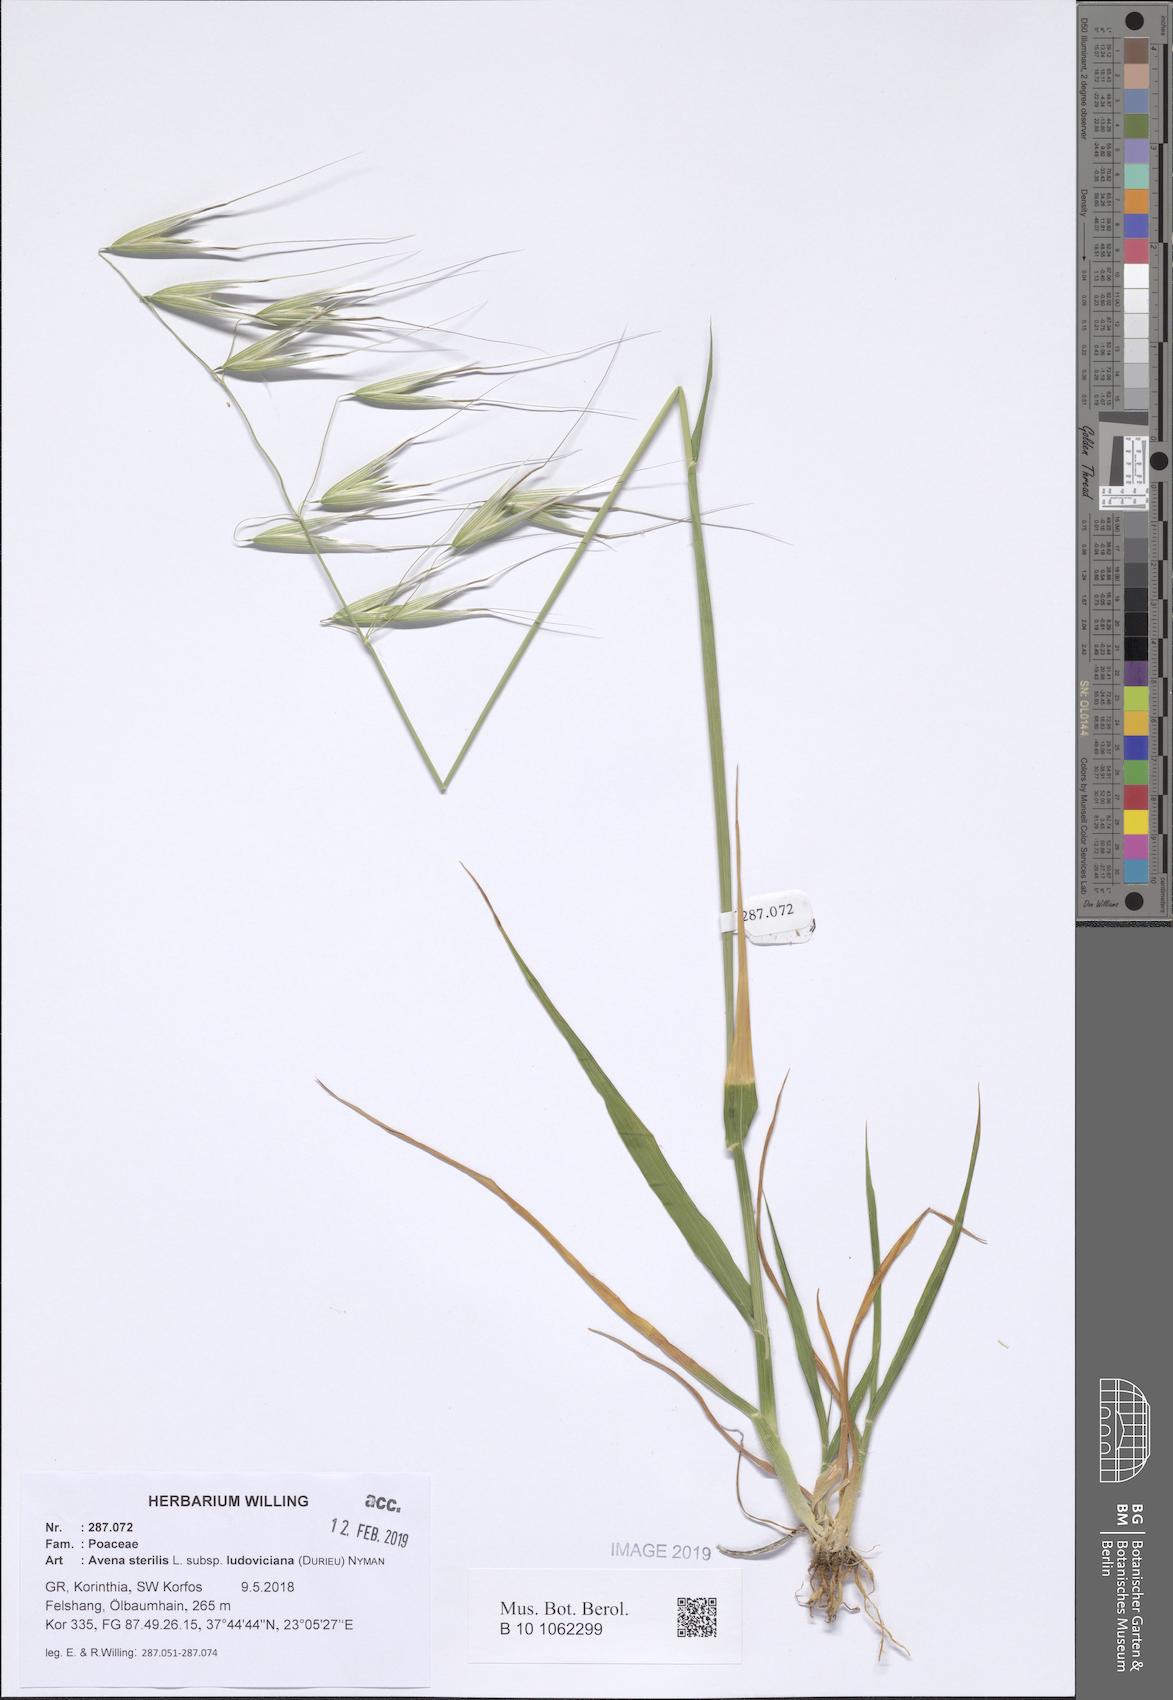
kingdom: Plantae
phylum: Tracheophyta
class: Liliopsida
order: Poales
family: Poaceae
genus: Avena
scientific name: Avena sterilis
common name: Animated oat
